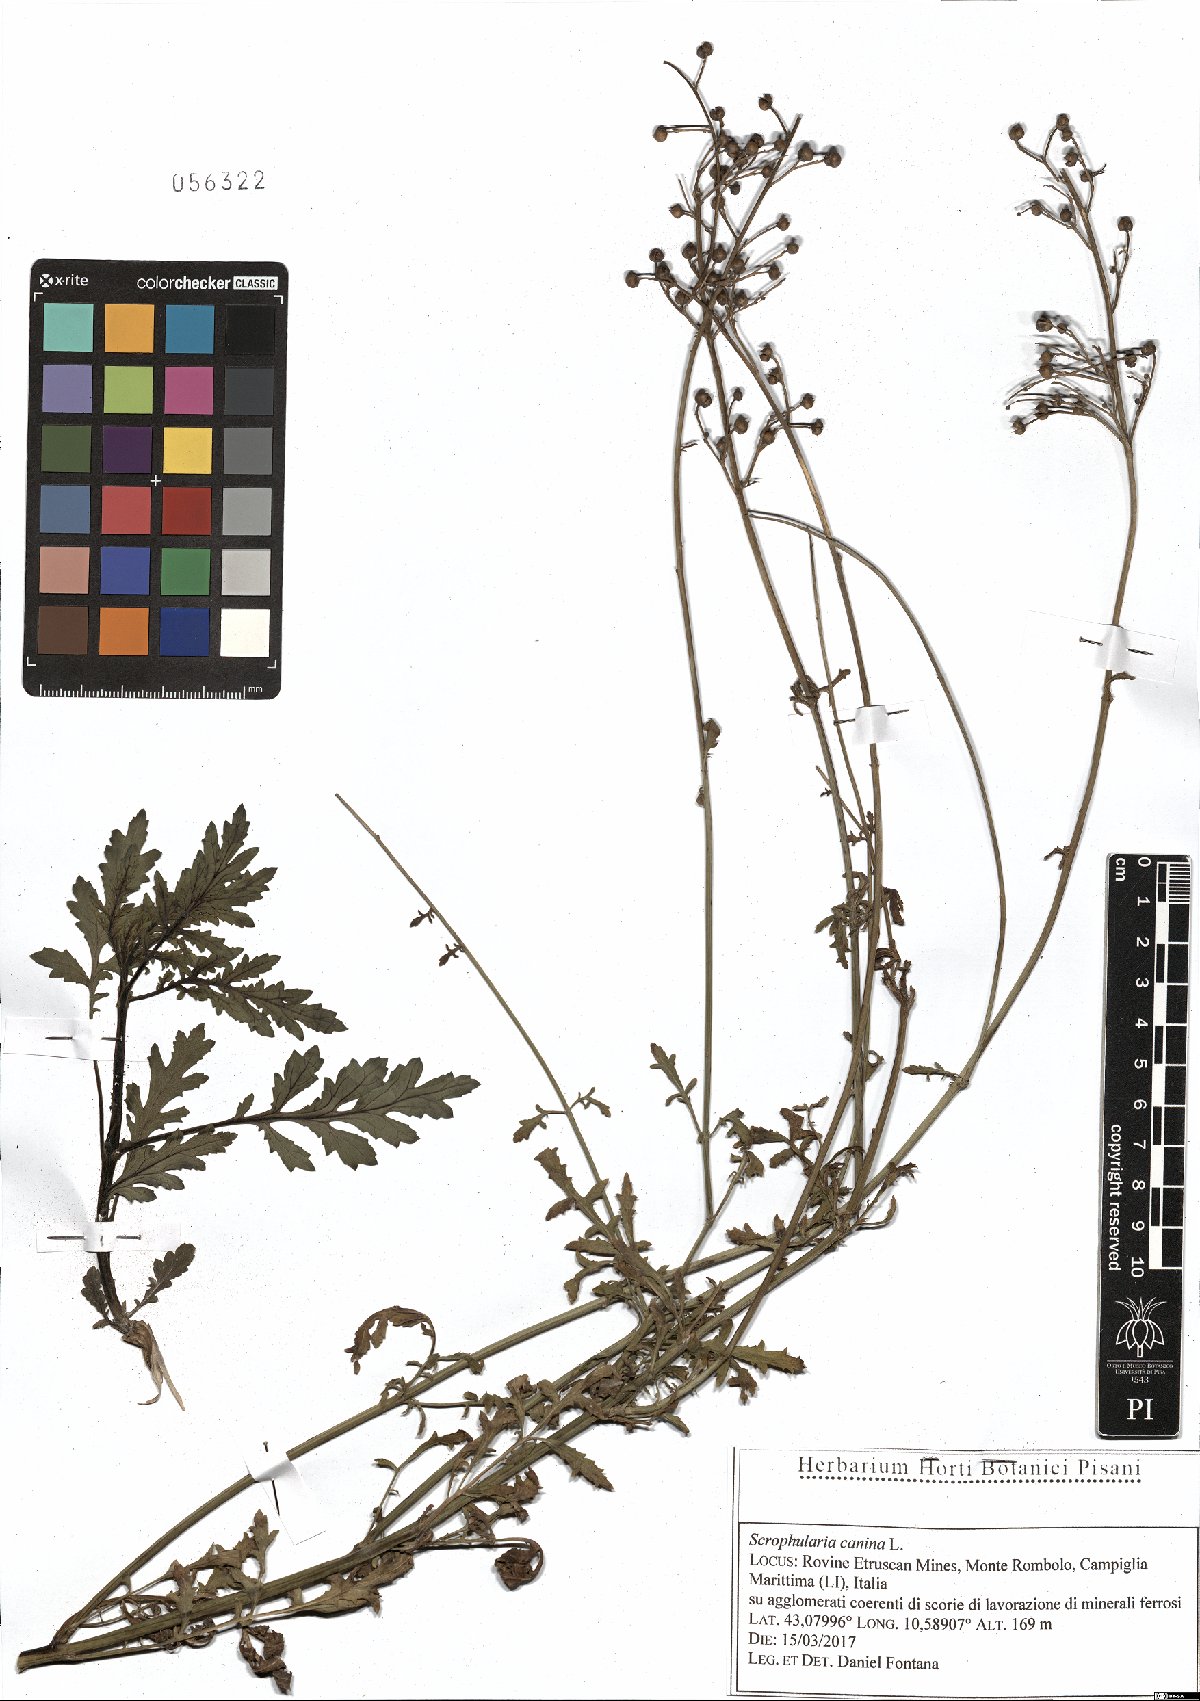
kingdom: Plantae
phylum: Tracheophyta
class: Magnoliopsida
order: Lamiales
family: Scrophulariaceae
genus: Scrophularia
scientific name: Scrophularia canina
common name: French figwort
